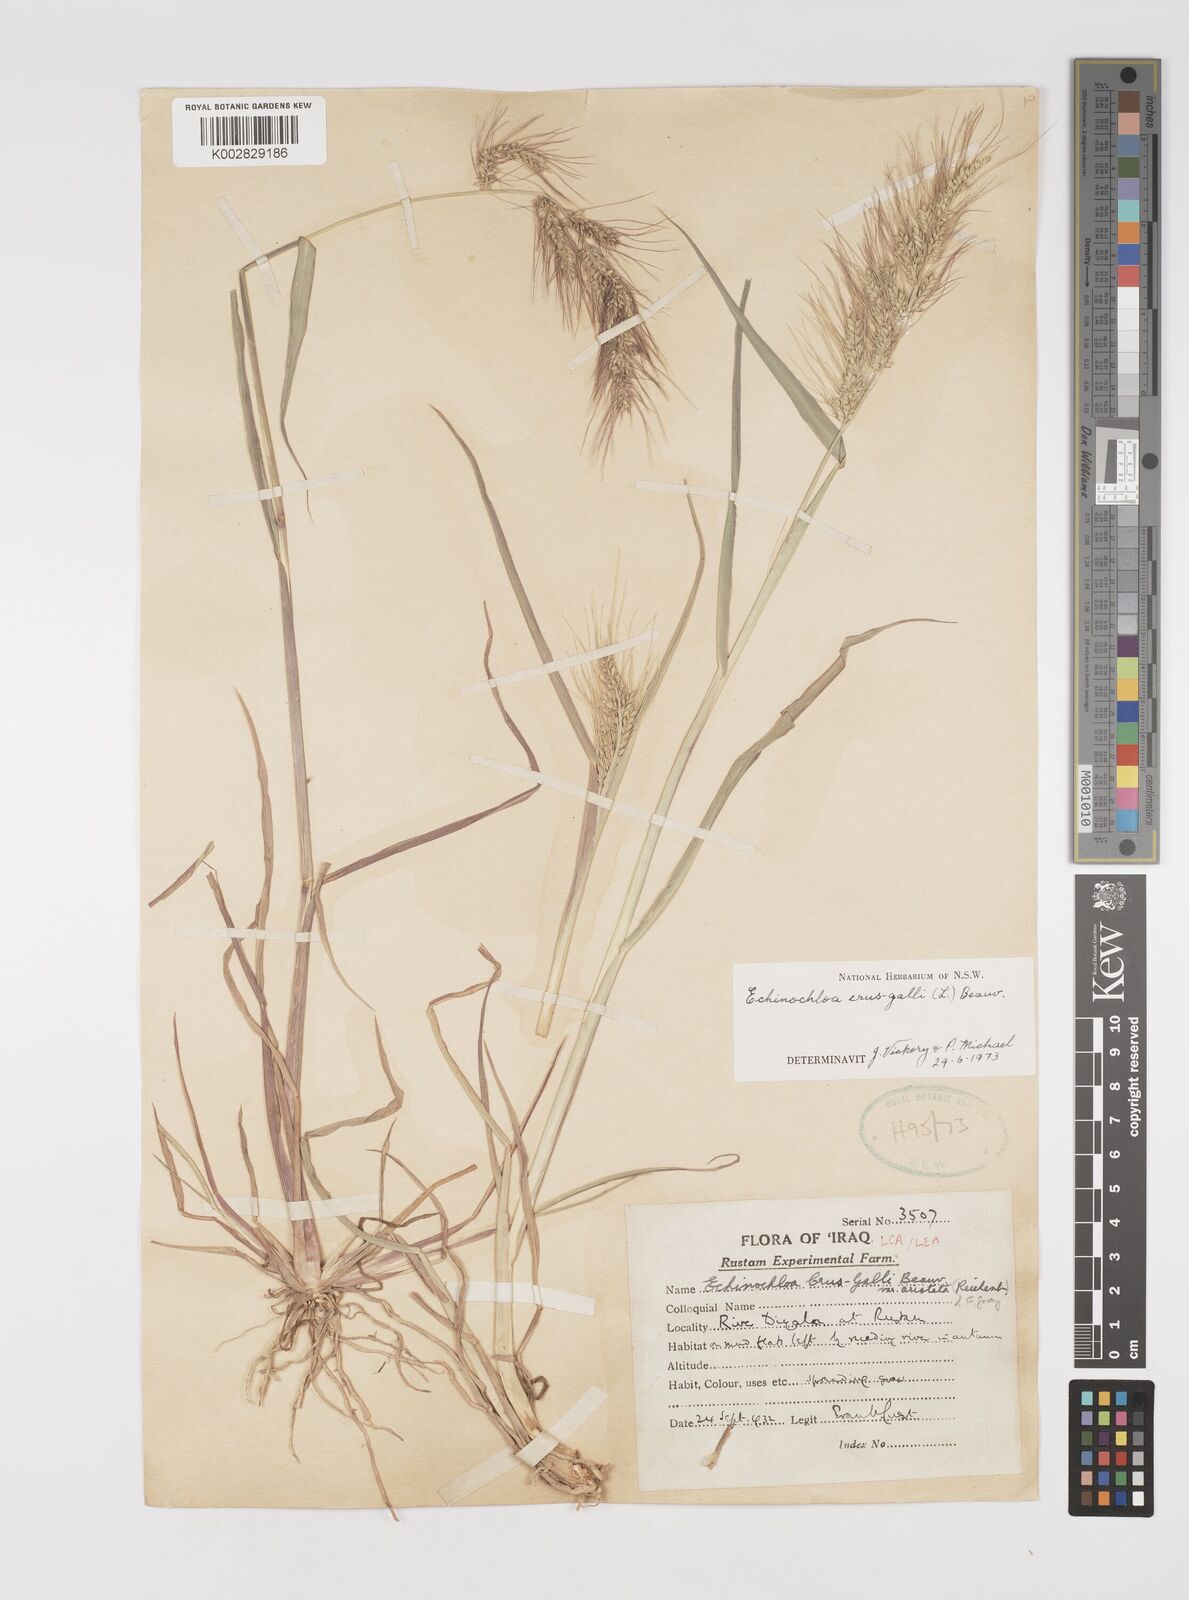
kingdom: Plantae
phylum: Tracheophyta
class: Liliopsida
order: Poales
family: Poaceae
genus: Echinochloa
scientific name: Echinochloa crus-galli
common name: Cockspur
